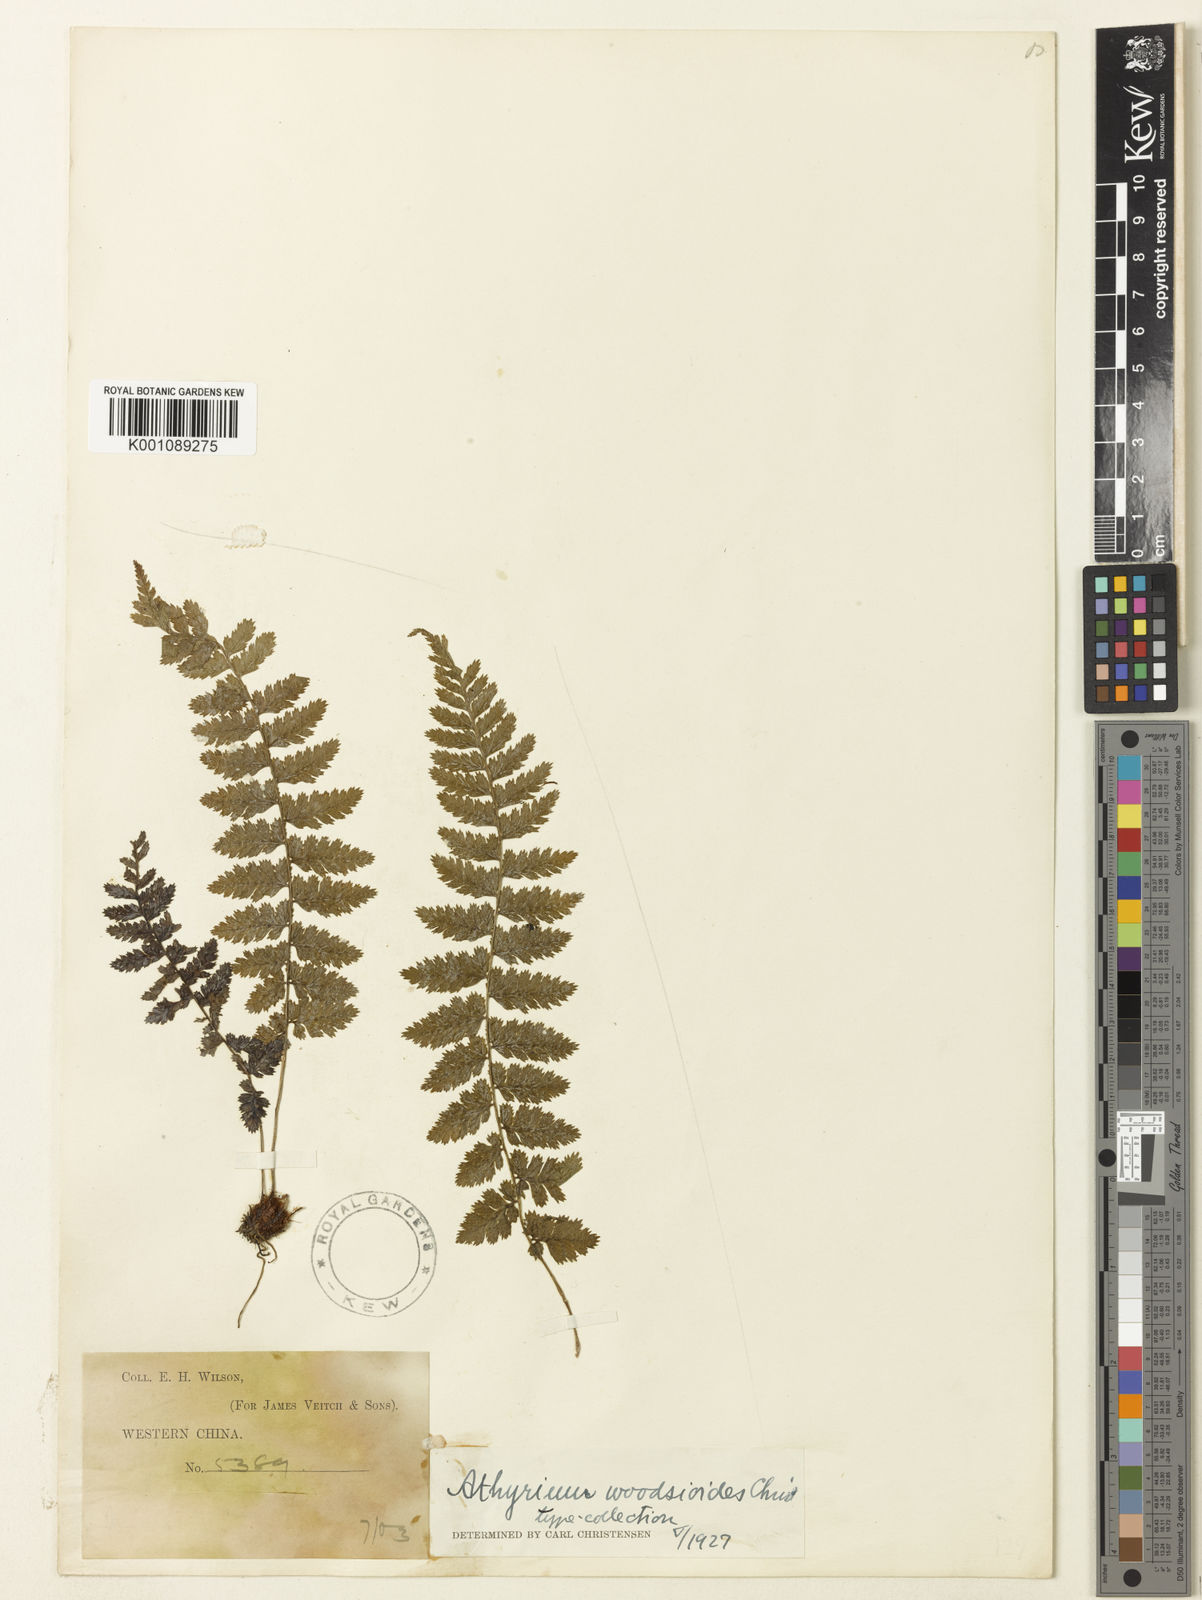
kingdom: Plantae
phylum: Tracheophyta
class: Polypodiopsida
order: Polypodiales
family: Athyriaceae
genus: Athyrium
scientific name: Athyrium anisopterum
